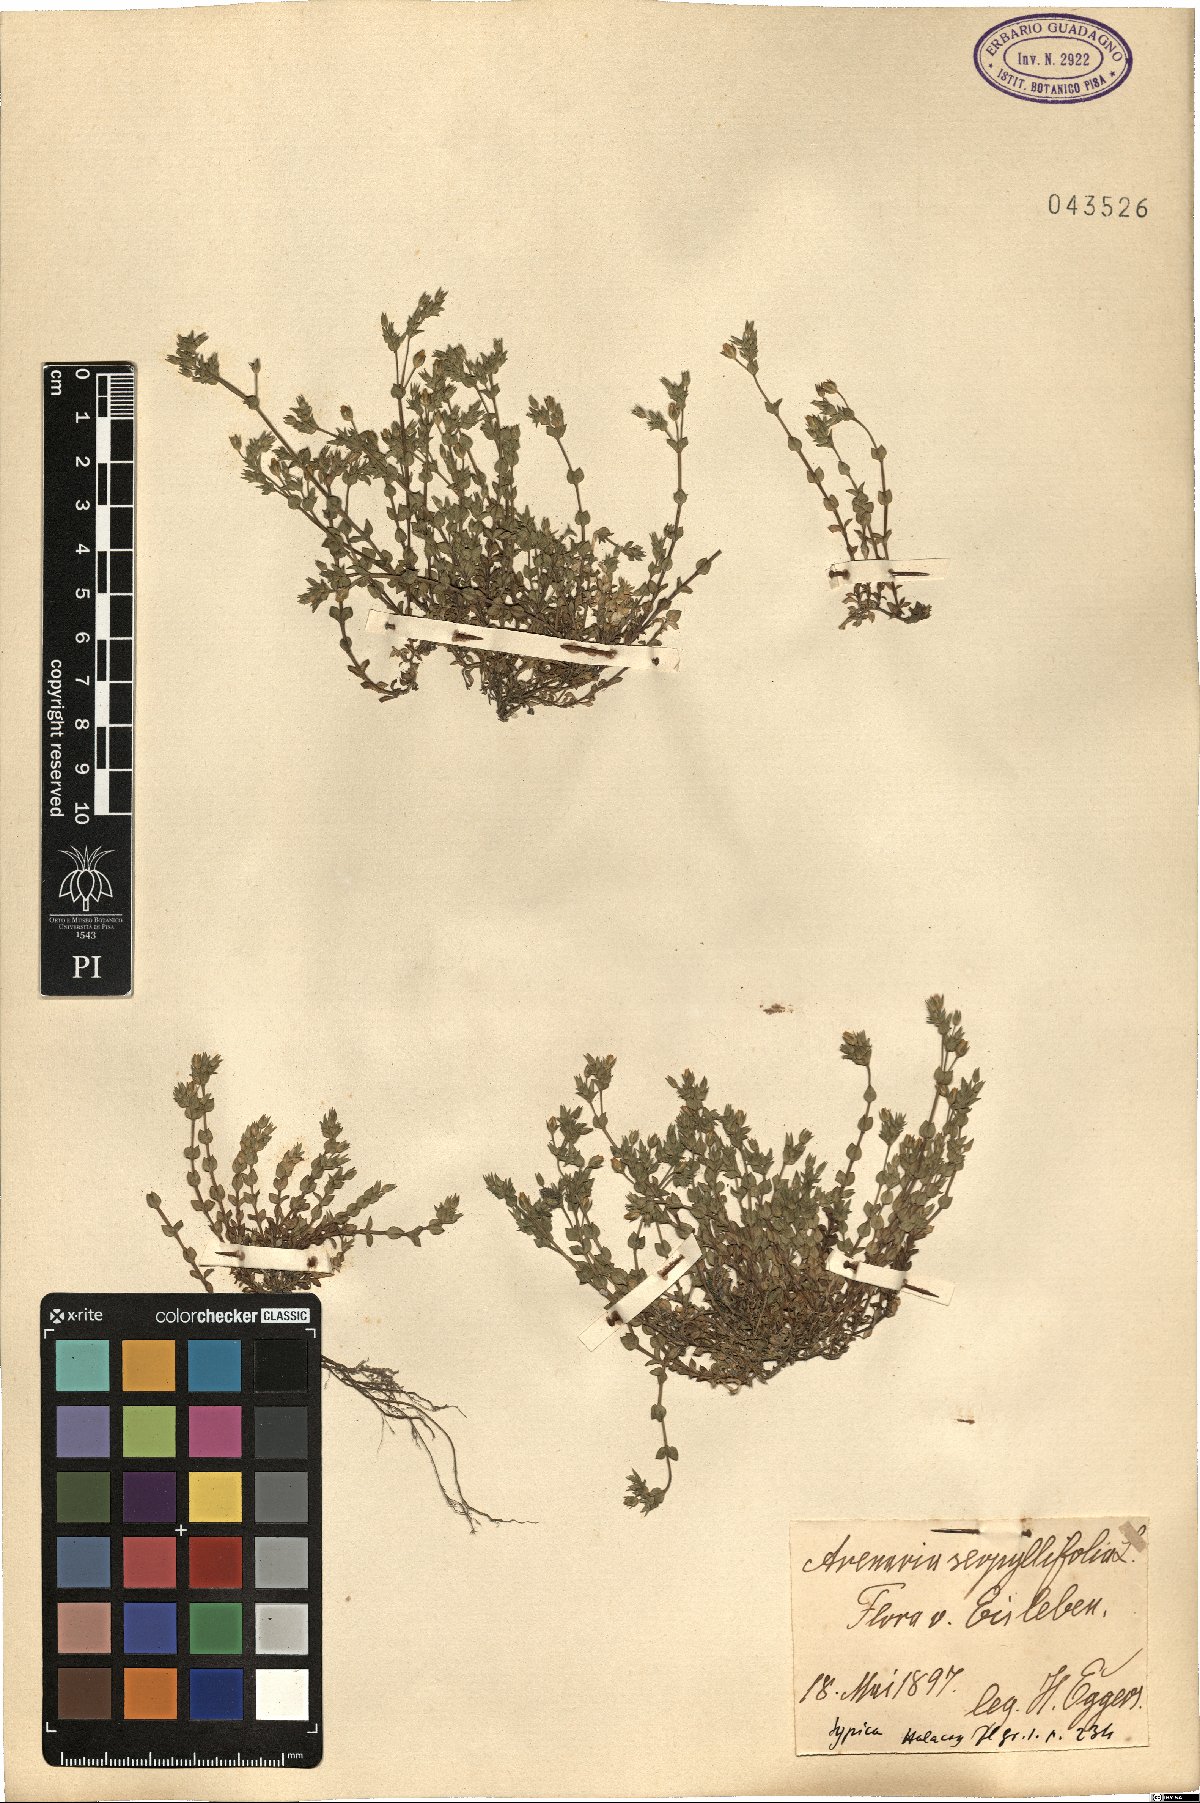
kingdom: Plantae
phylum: Tracheophyta
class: Magnoliopsida
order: Caryophyllales
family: Caryophyllaceae
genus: Arenaria
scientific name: Arenaria serpyllifolia
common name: Thyme-leaved sandwort
